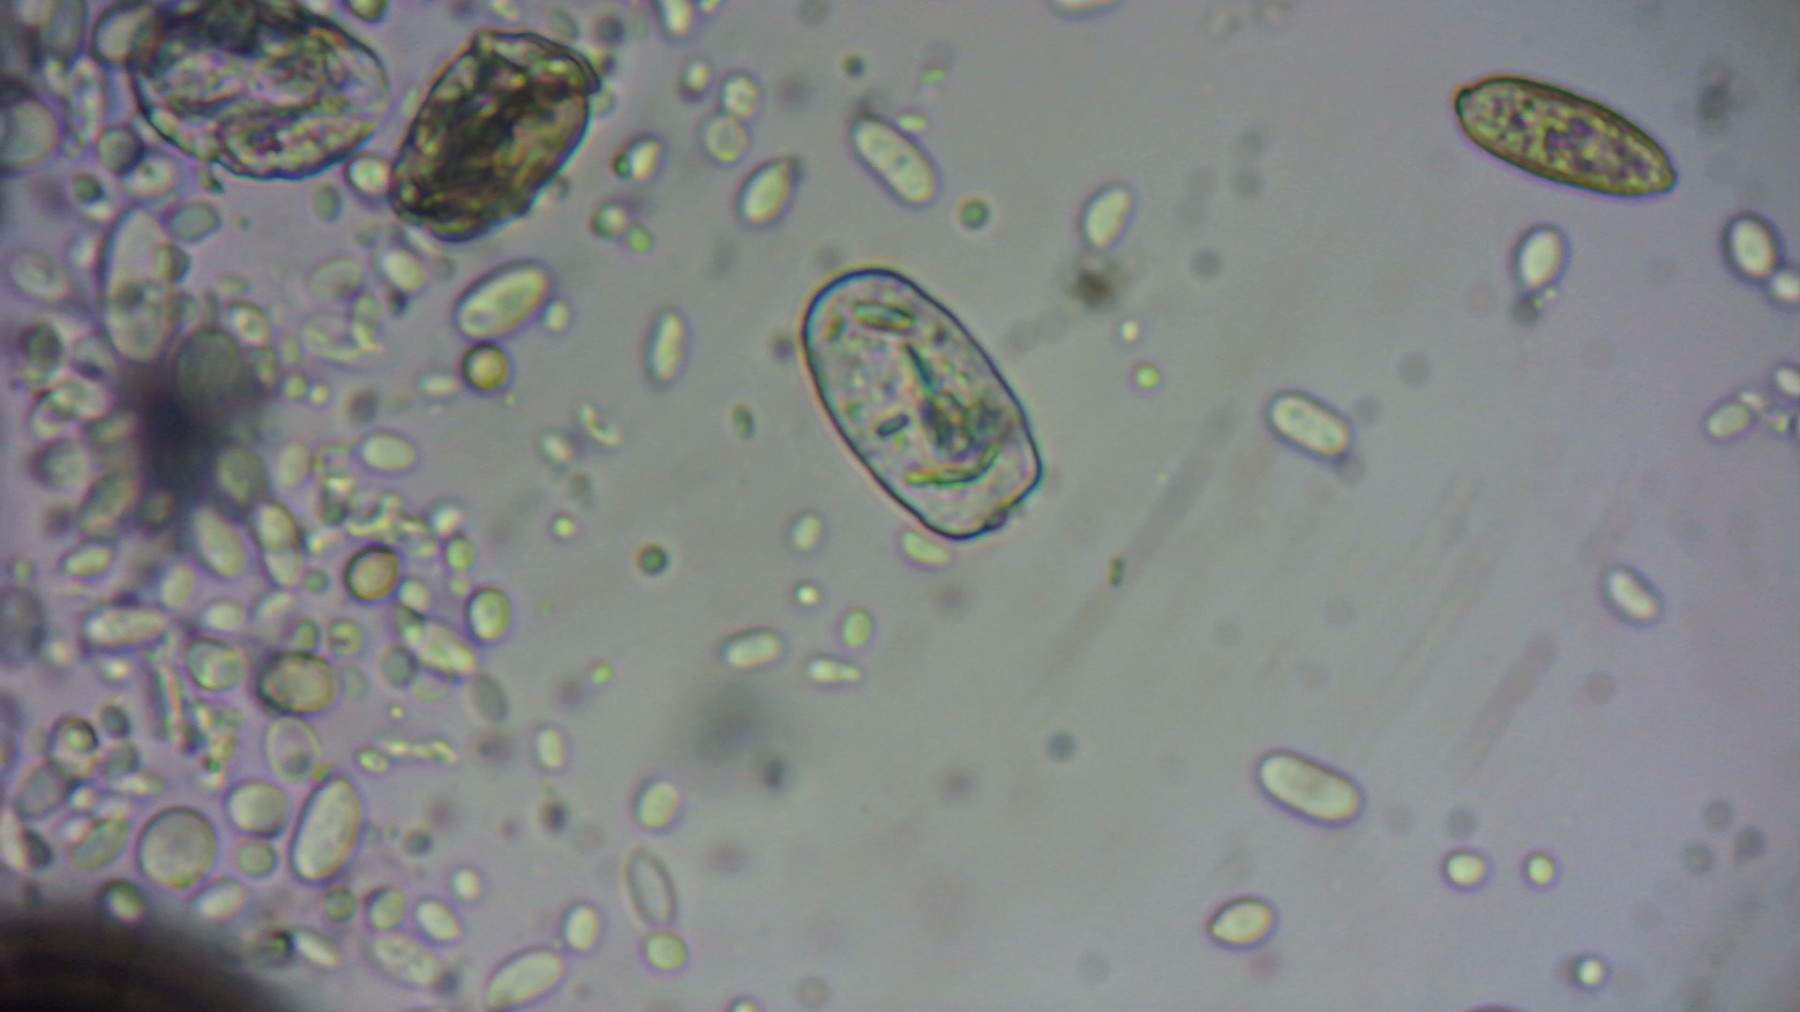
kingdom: Fungi
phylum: Ascomycota
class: Leotiomycetes
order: Helotiales
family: Erysiphaceae
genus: Podosphaera
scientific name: Podosphaera leucotricha
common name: æble-meldug
